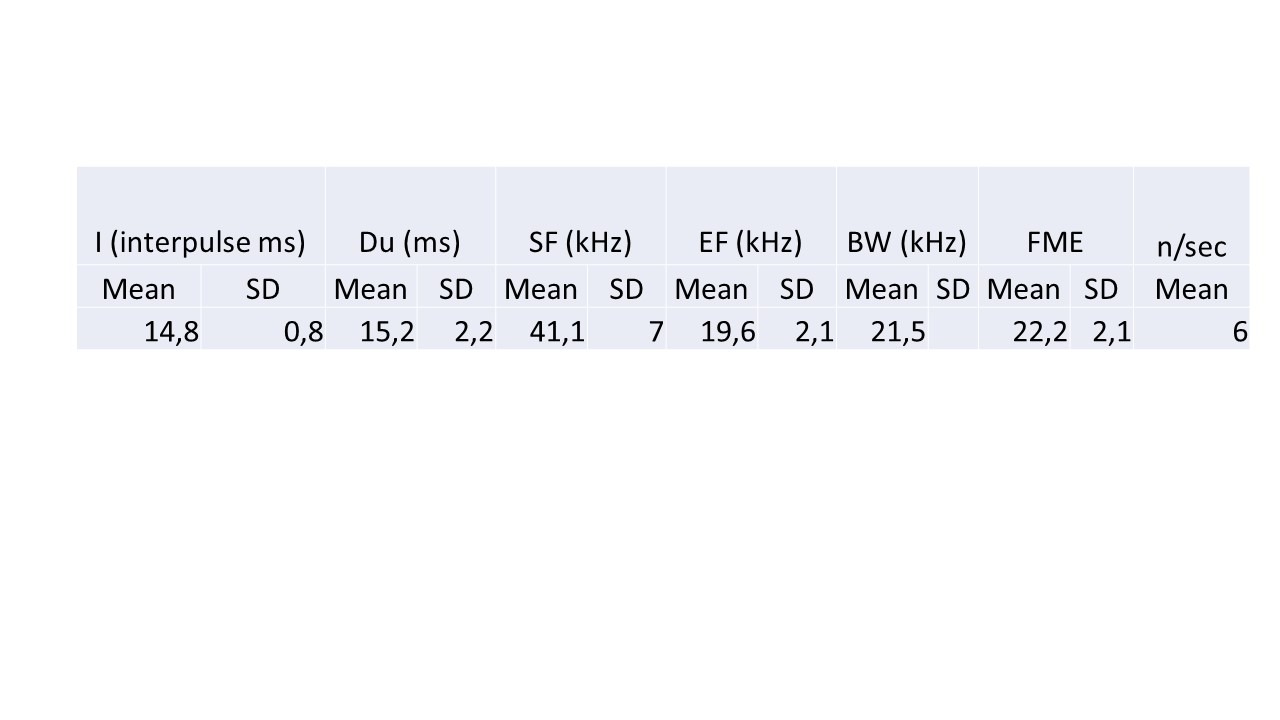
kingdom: Animalia
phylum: Chordata
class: Mammalia
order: Chiroptera
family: Vespertilionidae
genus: Nyctalus
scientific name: Nyctalus noctula
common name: Brunflagermus
